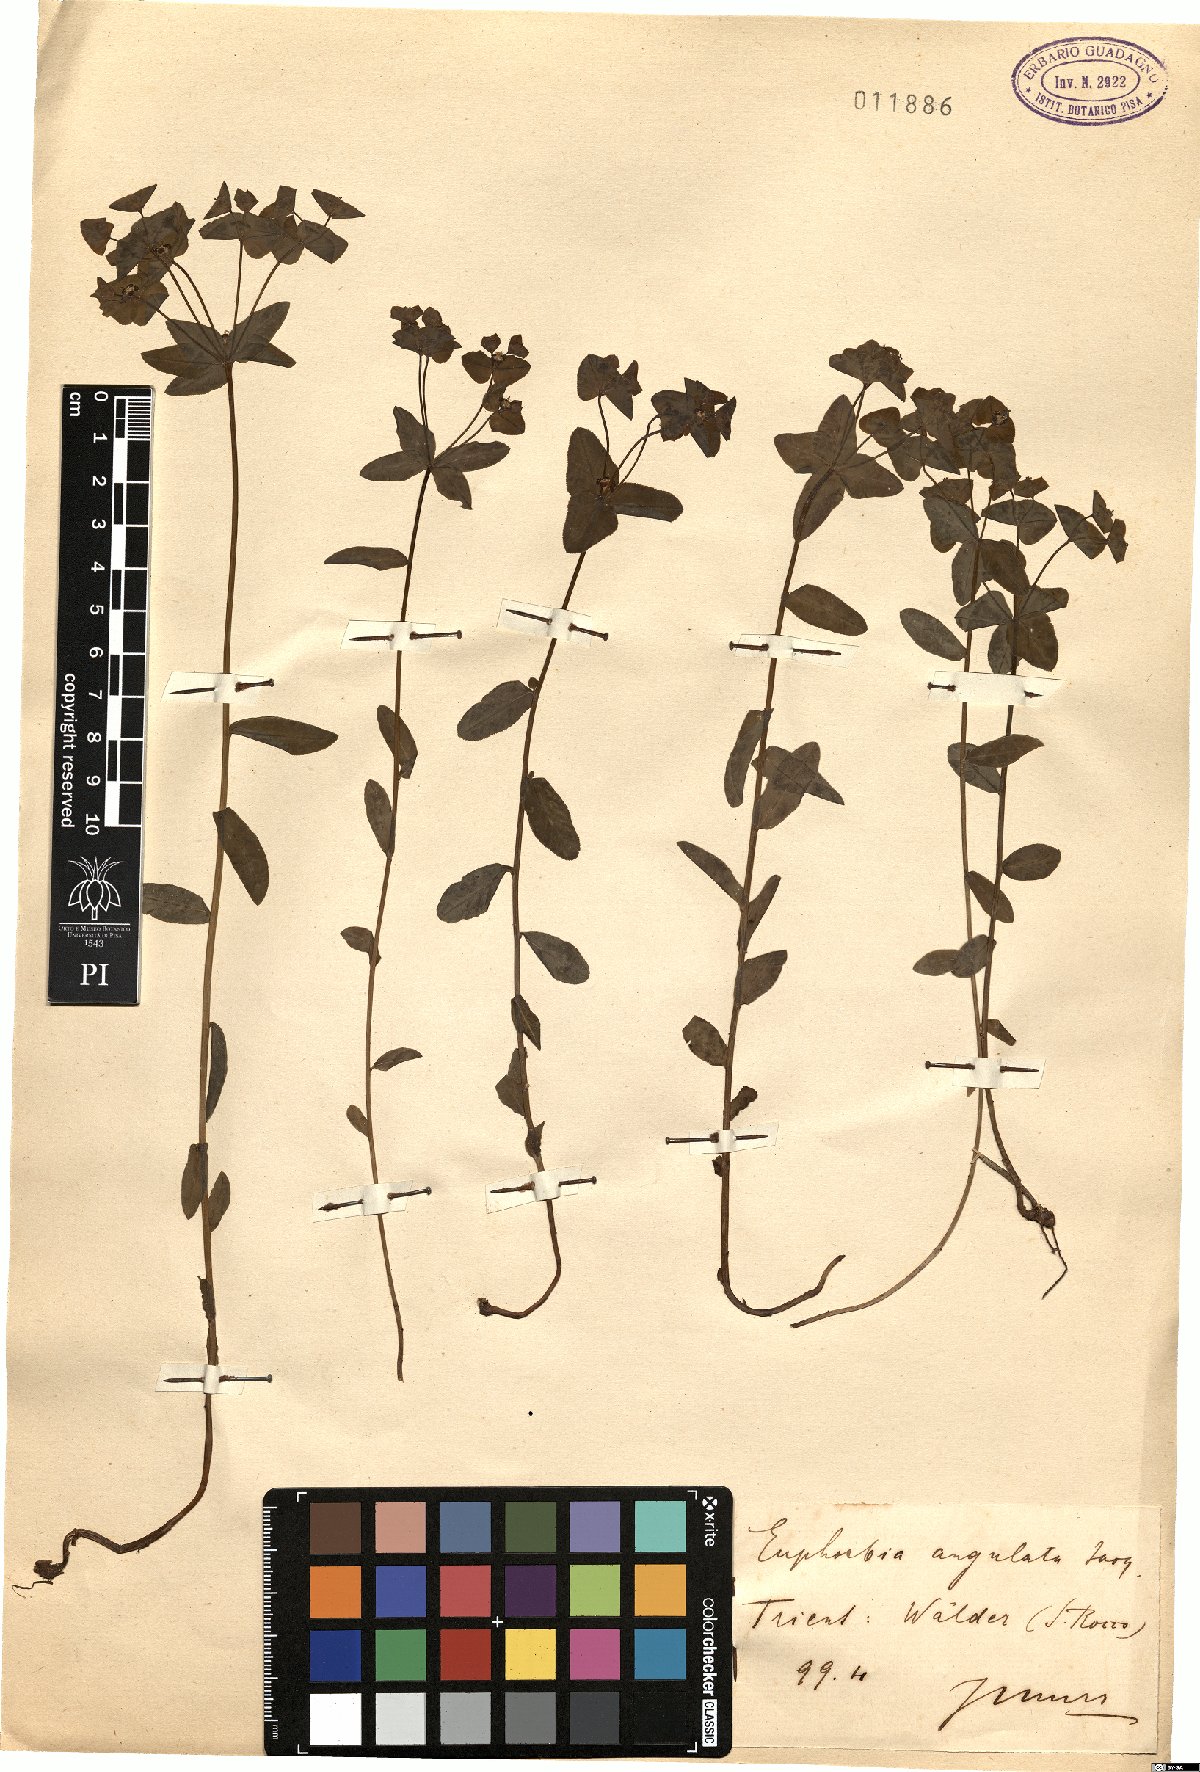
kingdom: Plantae
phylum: Tracheophyta
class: Magnoliopsida
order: Malpighiales
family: Euphorbiaceae
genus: Euphorbia
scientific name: Euphorbia angulata
